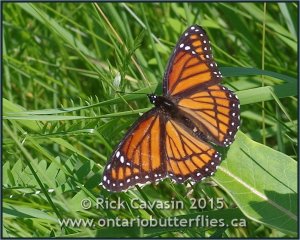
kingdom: Animalia
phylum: Arthropoda
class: Insecta
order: Lepidoptera
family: Nymphalidae
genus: Limenitis
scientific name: Limenitis archippus
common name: Viceroy
